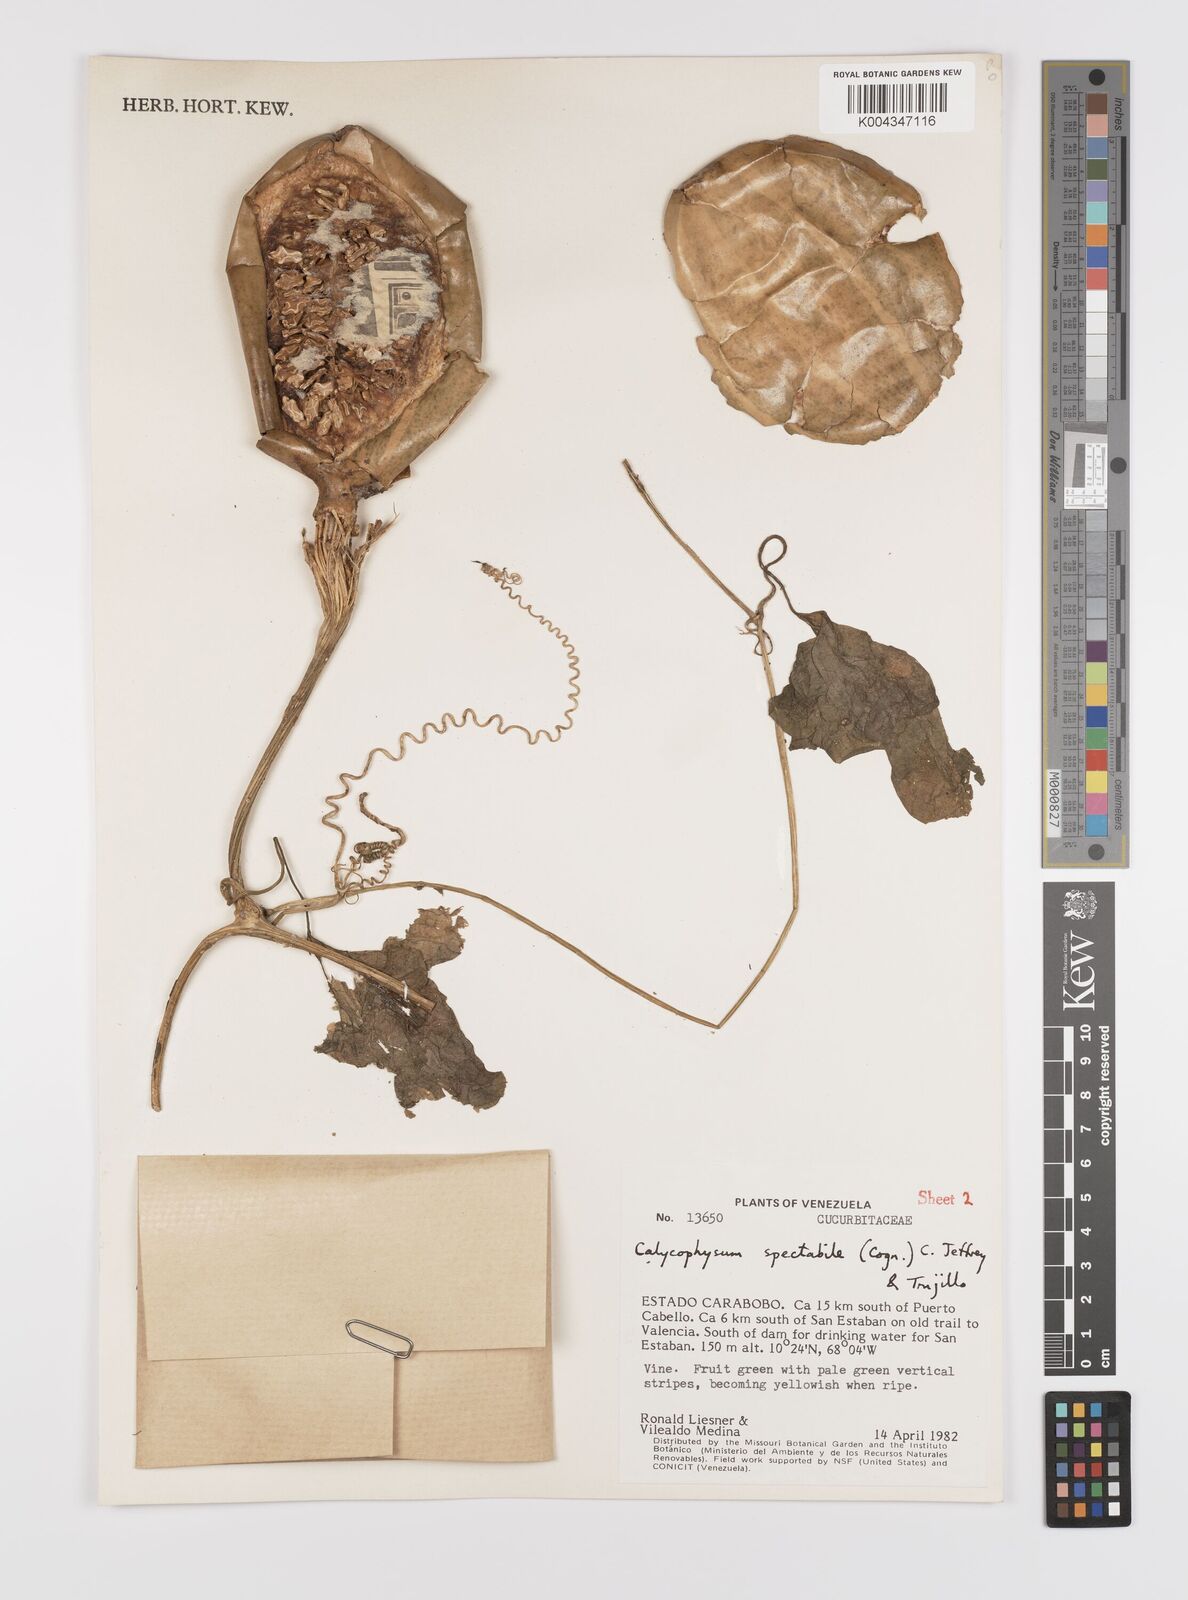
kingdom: Plantae
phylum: Tracheophyta
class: Magnoliopsida
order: Cucurbitales
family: Cucurbitaceae
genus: Calycophysum
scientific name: Calycophysum spectabile
